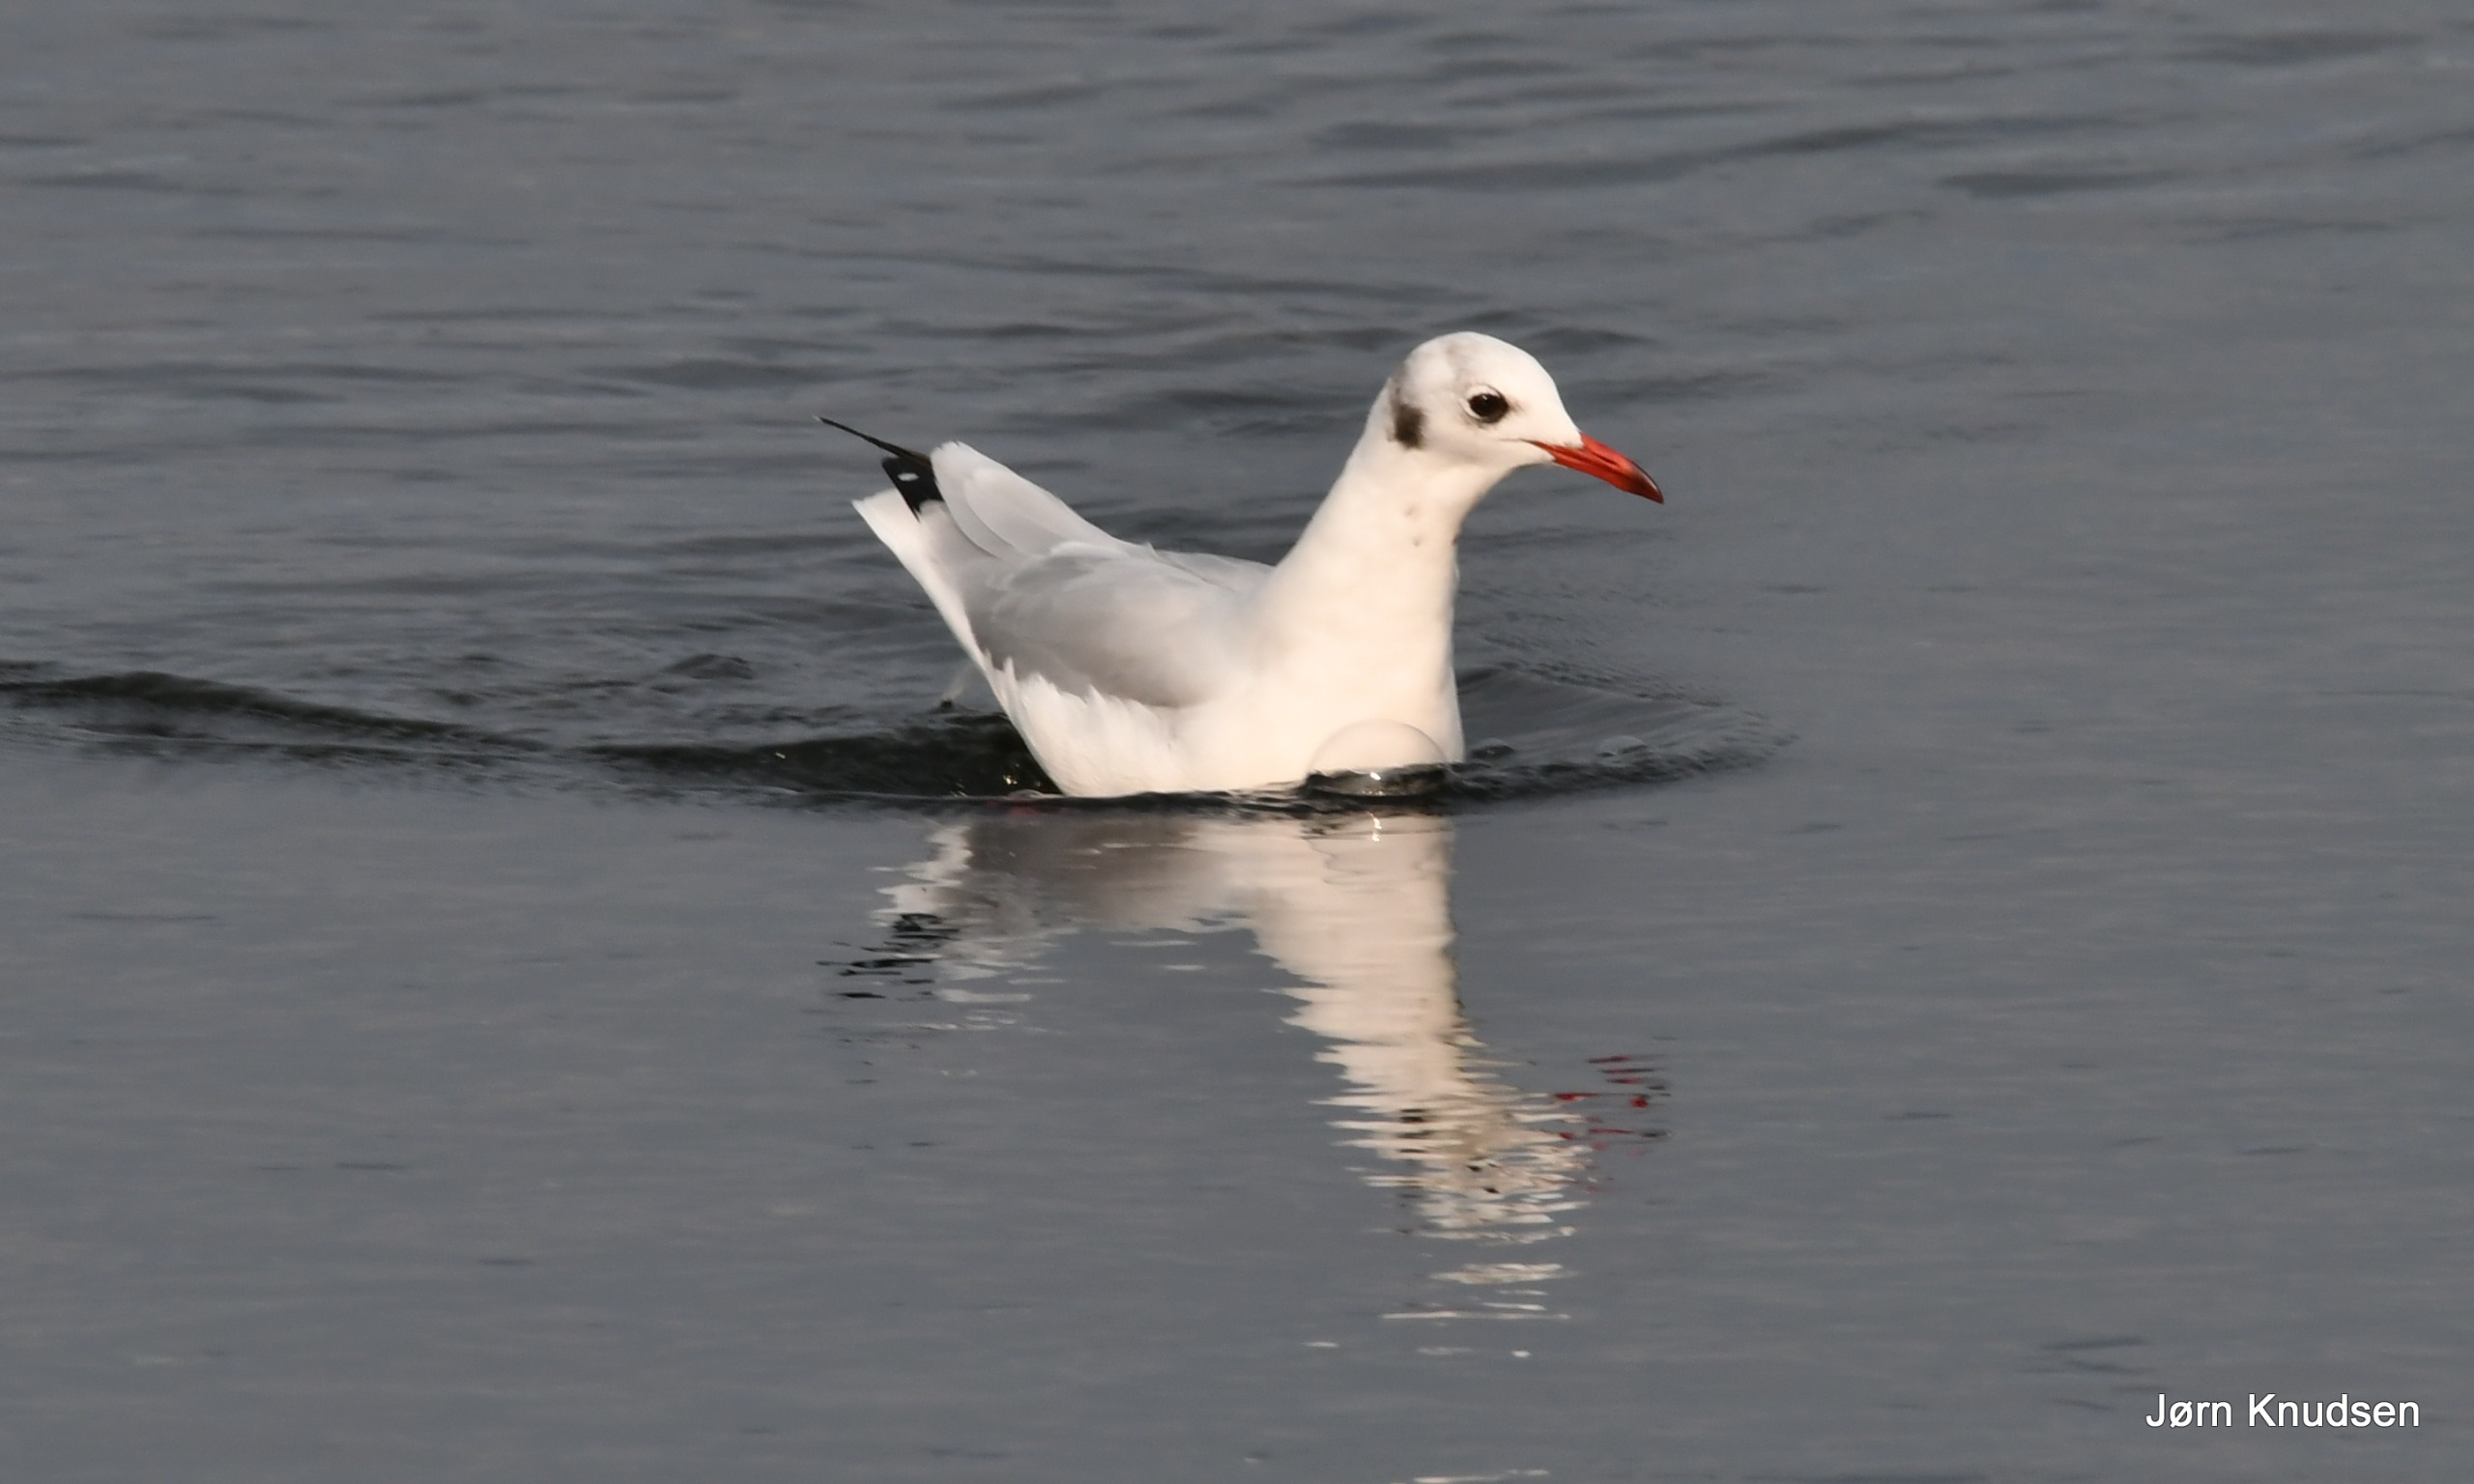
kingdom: Animalia
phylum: Chordata
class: Aves
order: Charadriiformes
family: Laridae
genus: Chroicocephalus
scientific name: Chroicocephalus ridibundus
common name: Hættemåge
